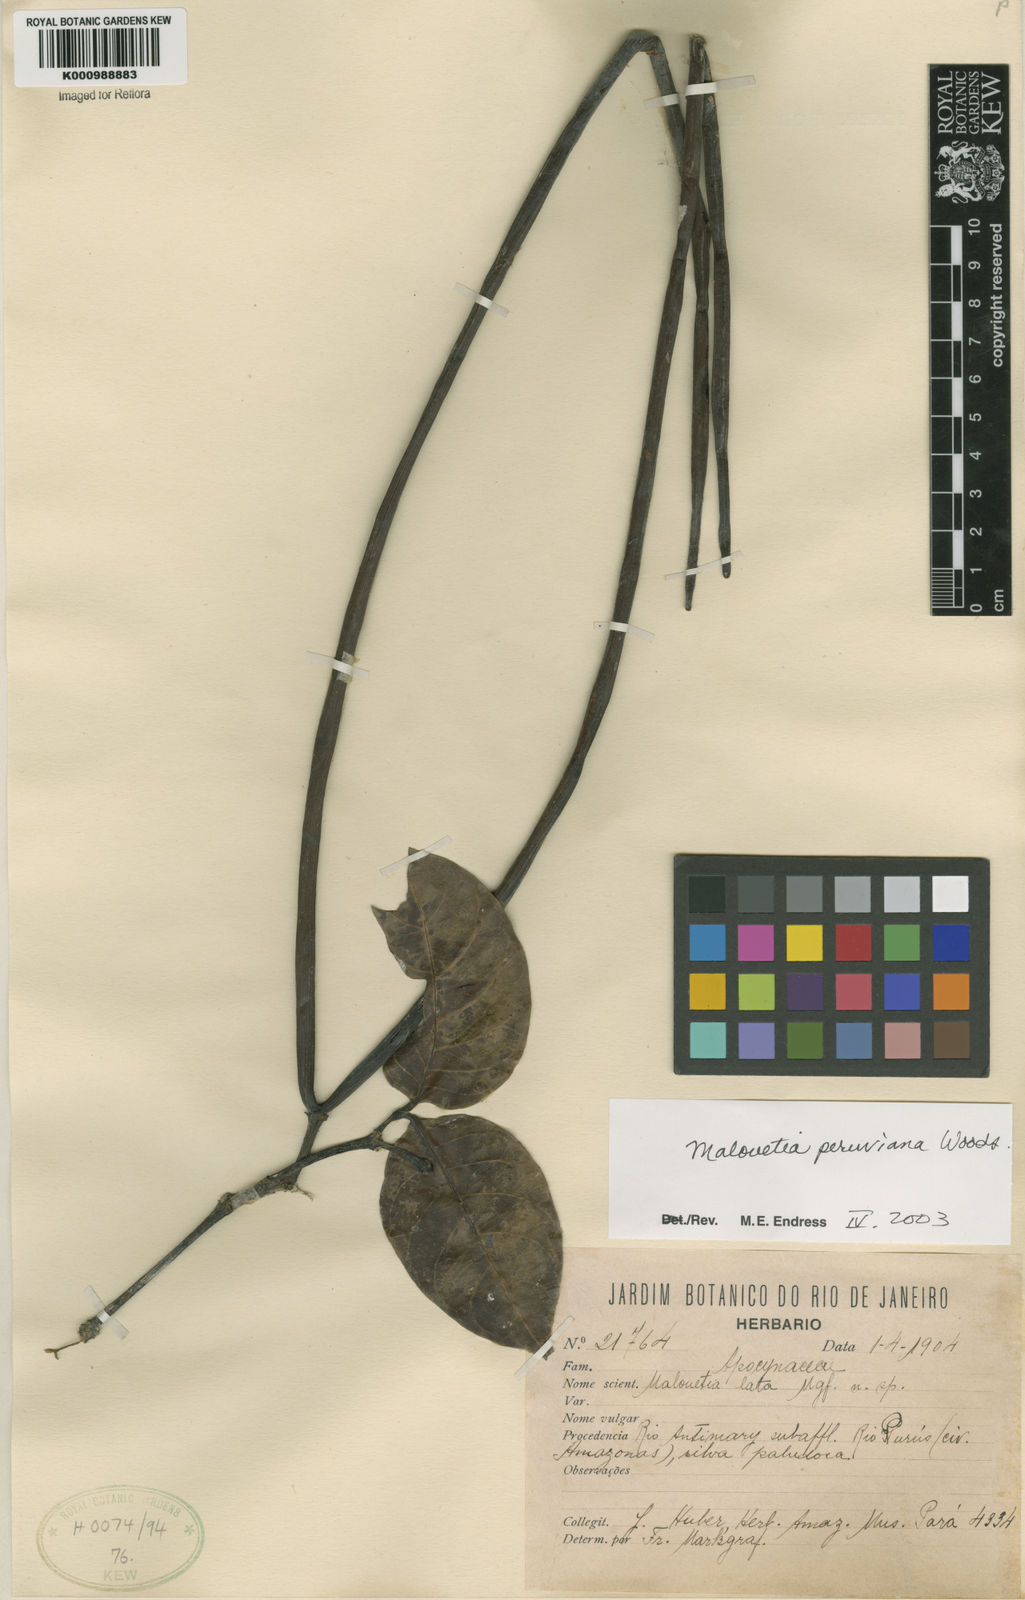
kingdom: Plantae
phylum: Tracheophyta
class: Magnoliopsida
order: Gentianales
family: Apocynaceae
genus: Malouetia
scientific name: Malouetia tamaquarina
